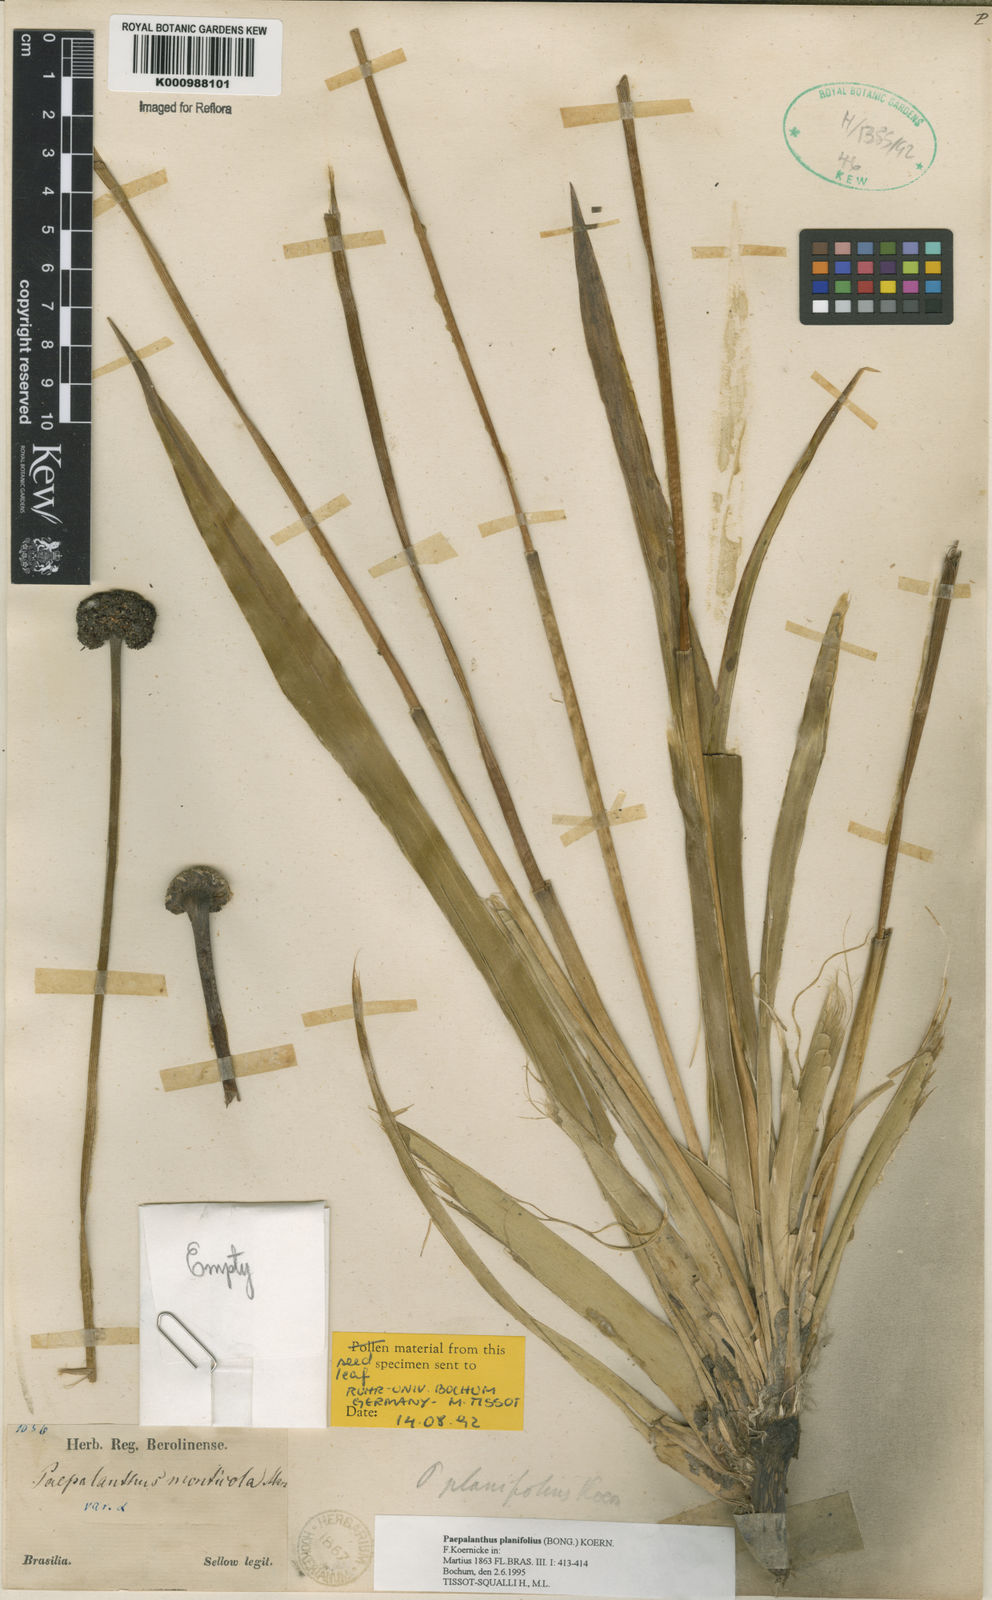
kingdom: Plantae
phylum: Tracheophyta
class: Liliopsida
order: Poales
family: Eriocaulaceae
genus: Paepalanthus
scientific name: Paepalanthus
